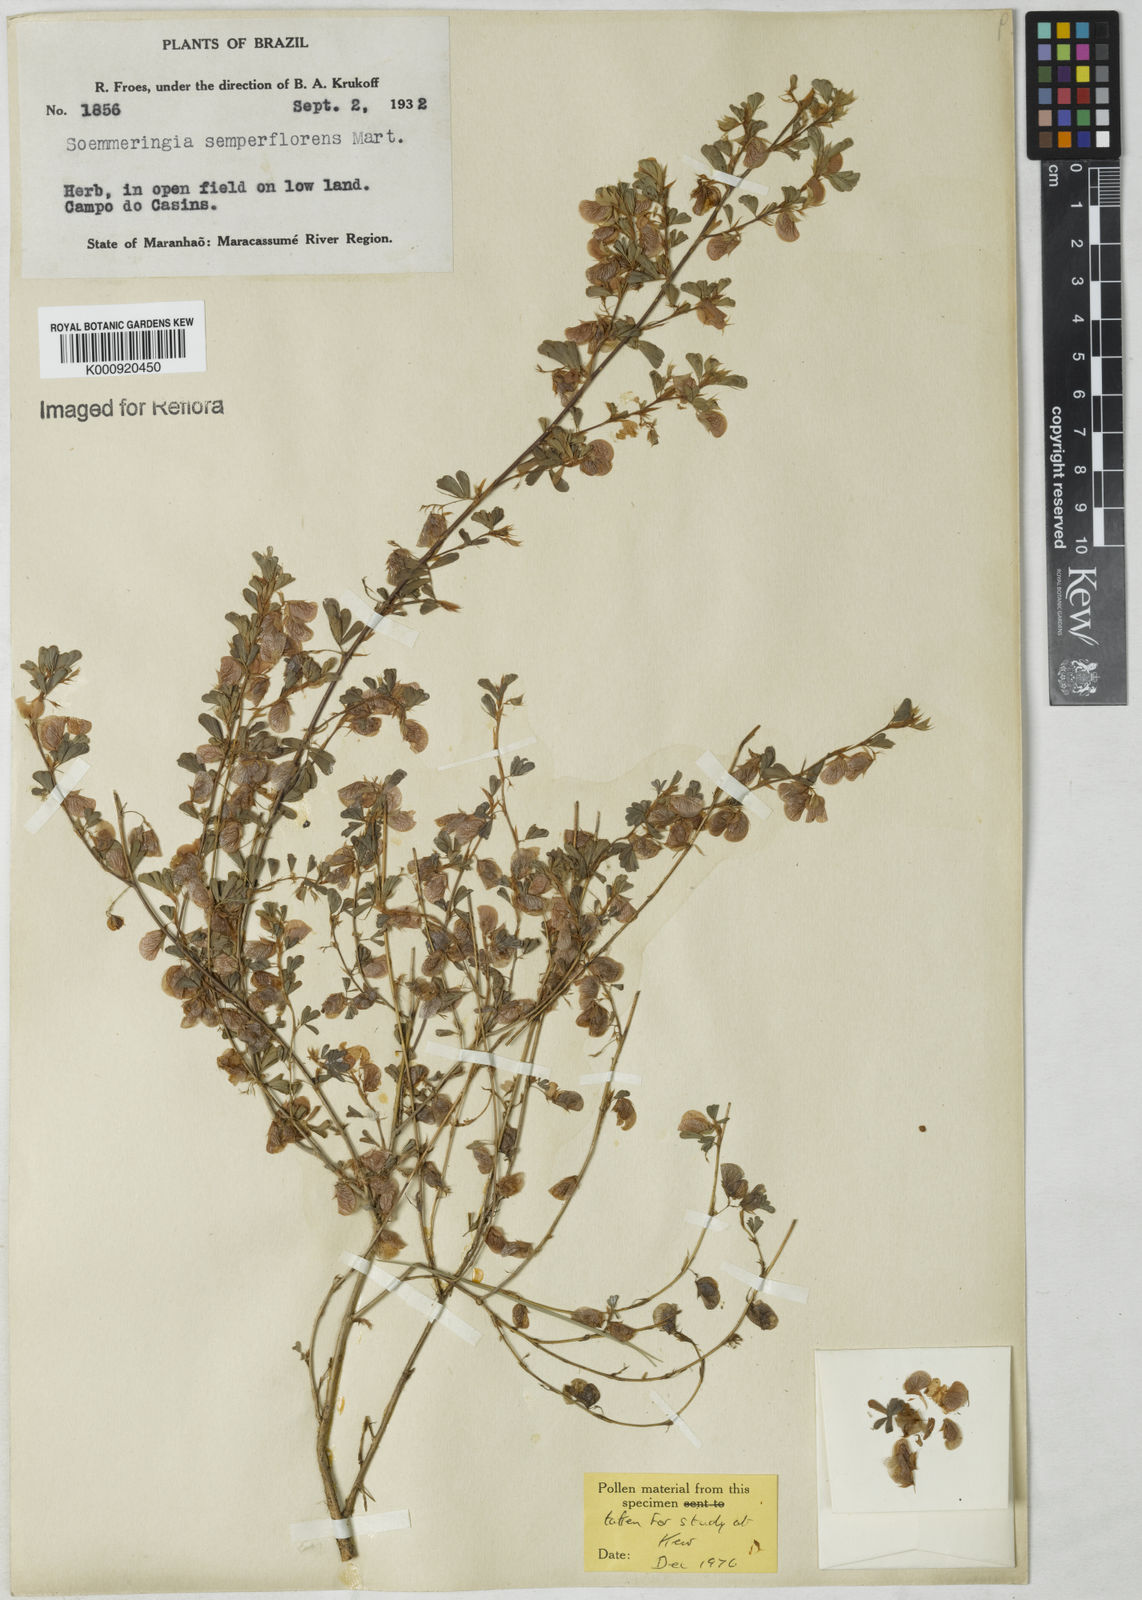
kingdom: Plantae
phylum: Tracheophyta
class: Magnoliopsida
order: Fabales
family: Fabaceae
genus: Soemmeringia
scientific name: Soemmeringia
